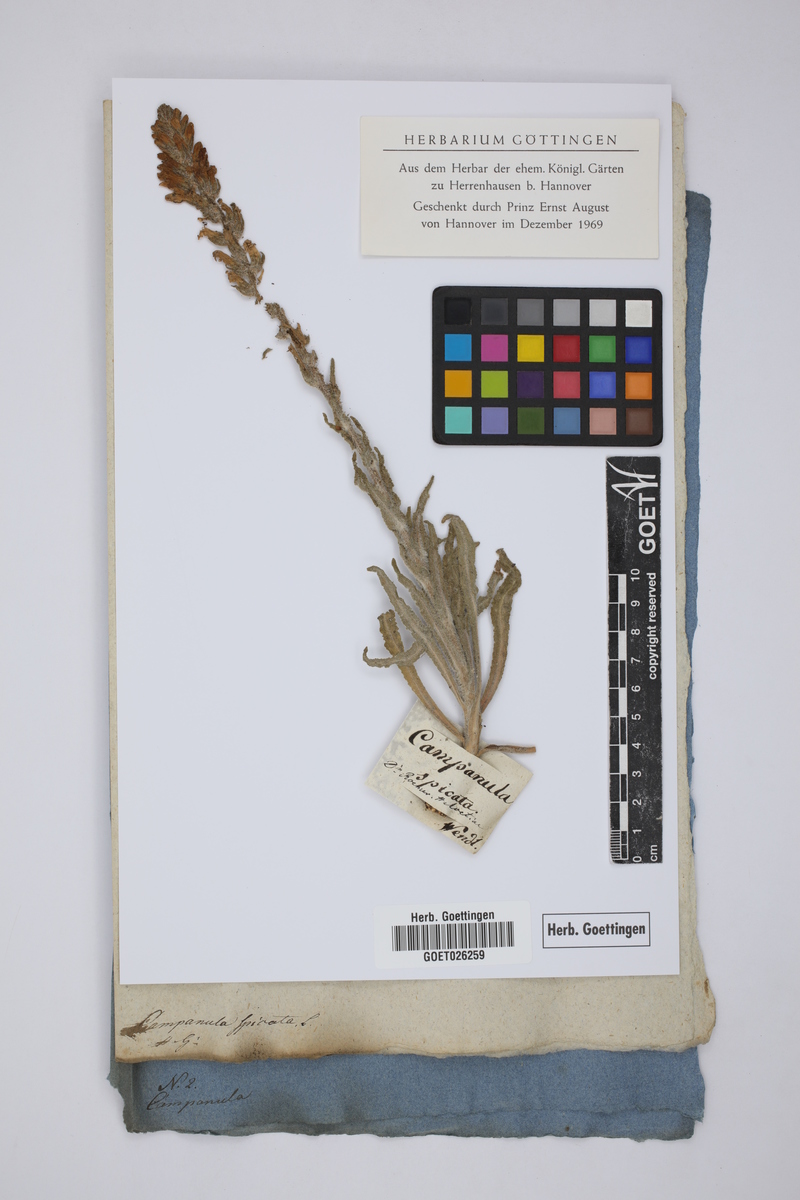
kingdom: Plantae
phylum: Tracheophyta
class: Magnoliopsida
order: Asterales
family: Campanulaceae
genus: Campanula
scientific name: Campanula spicata
